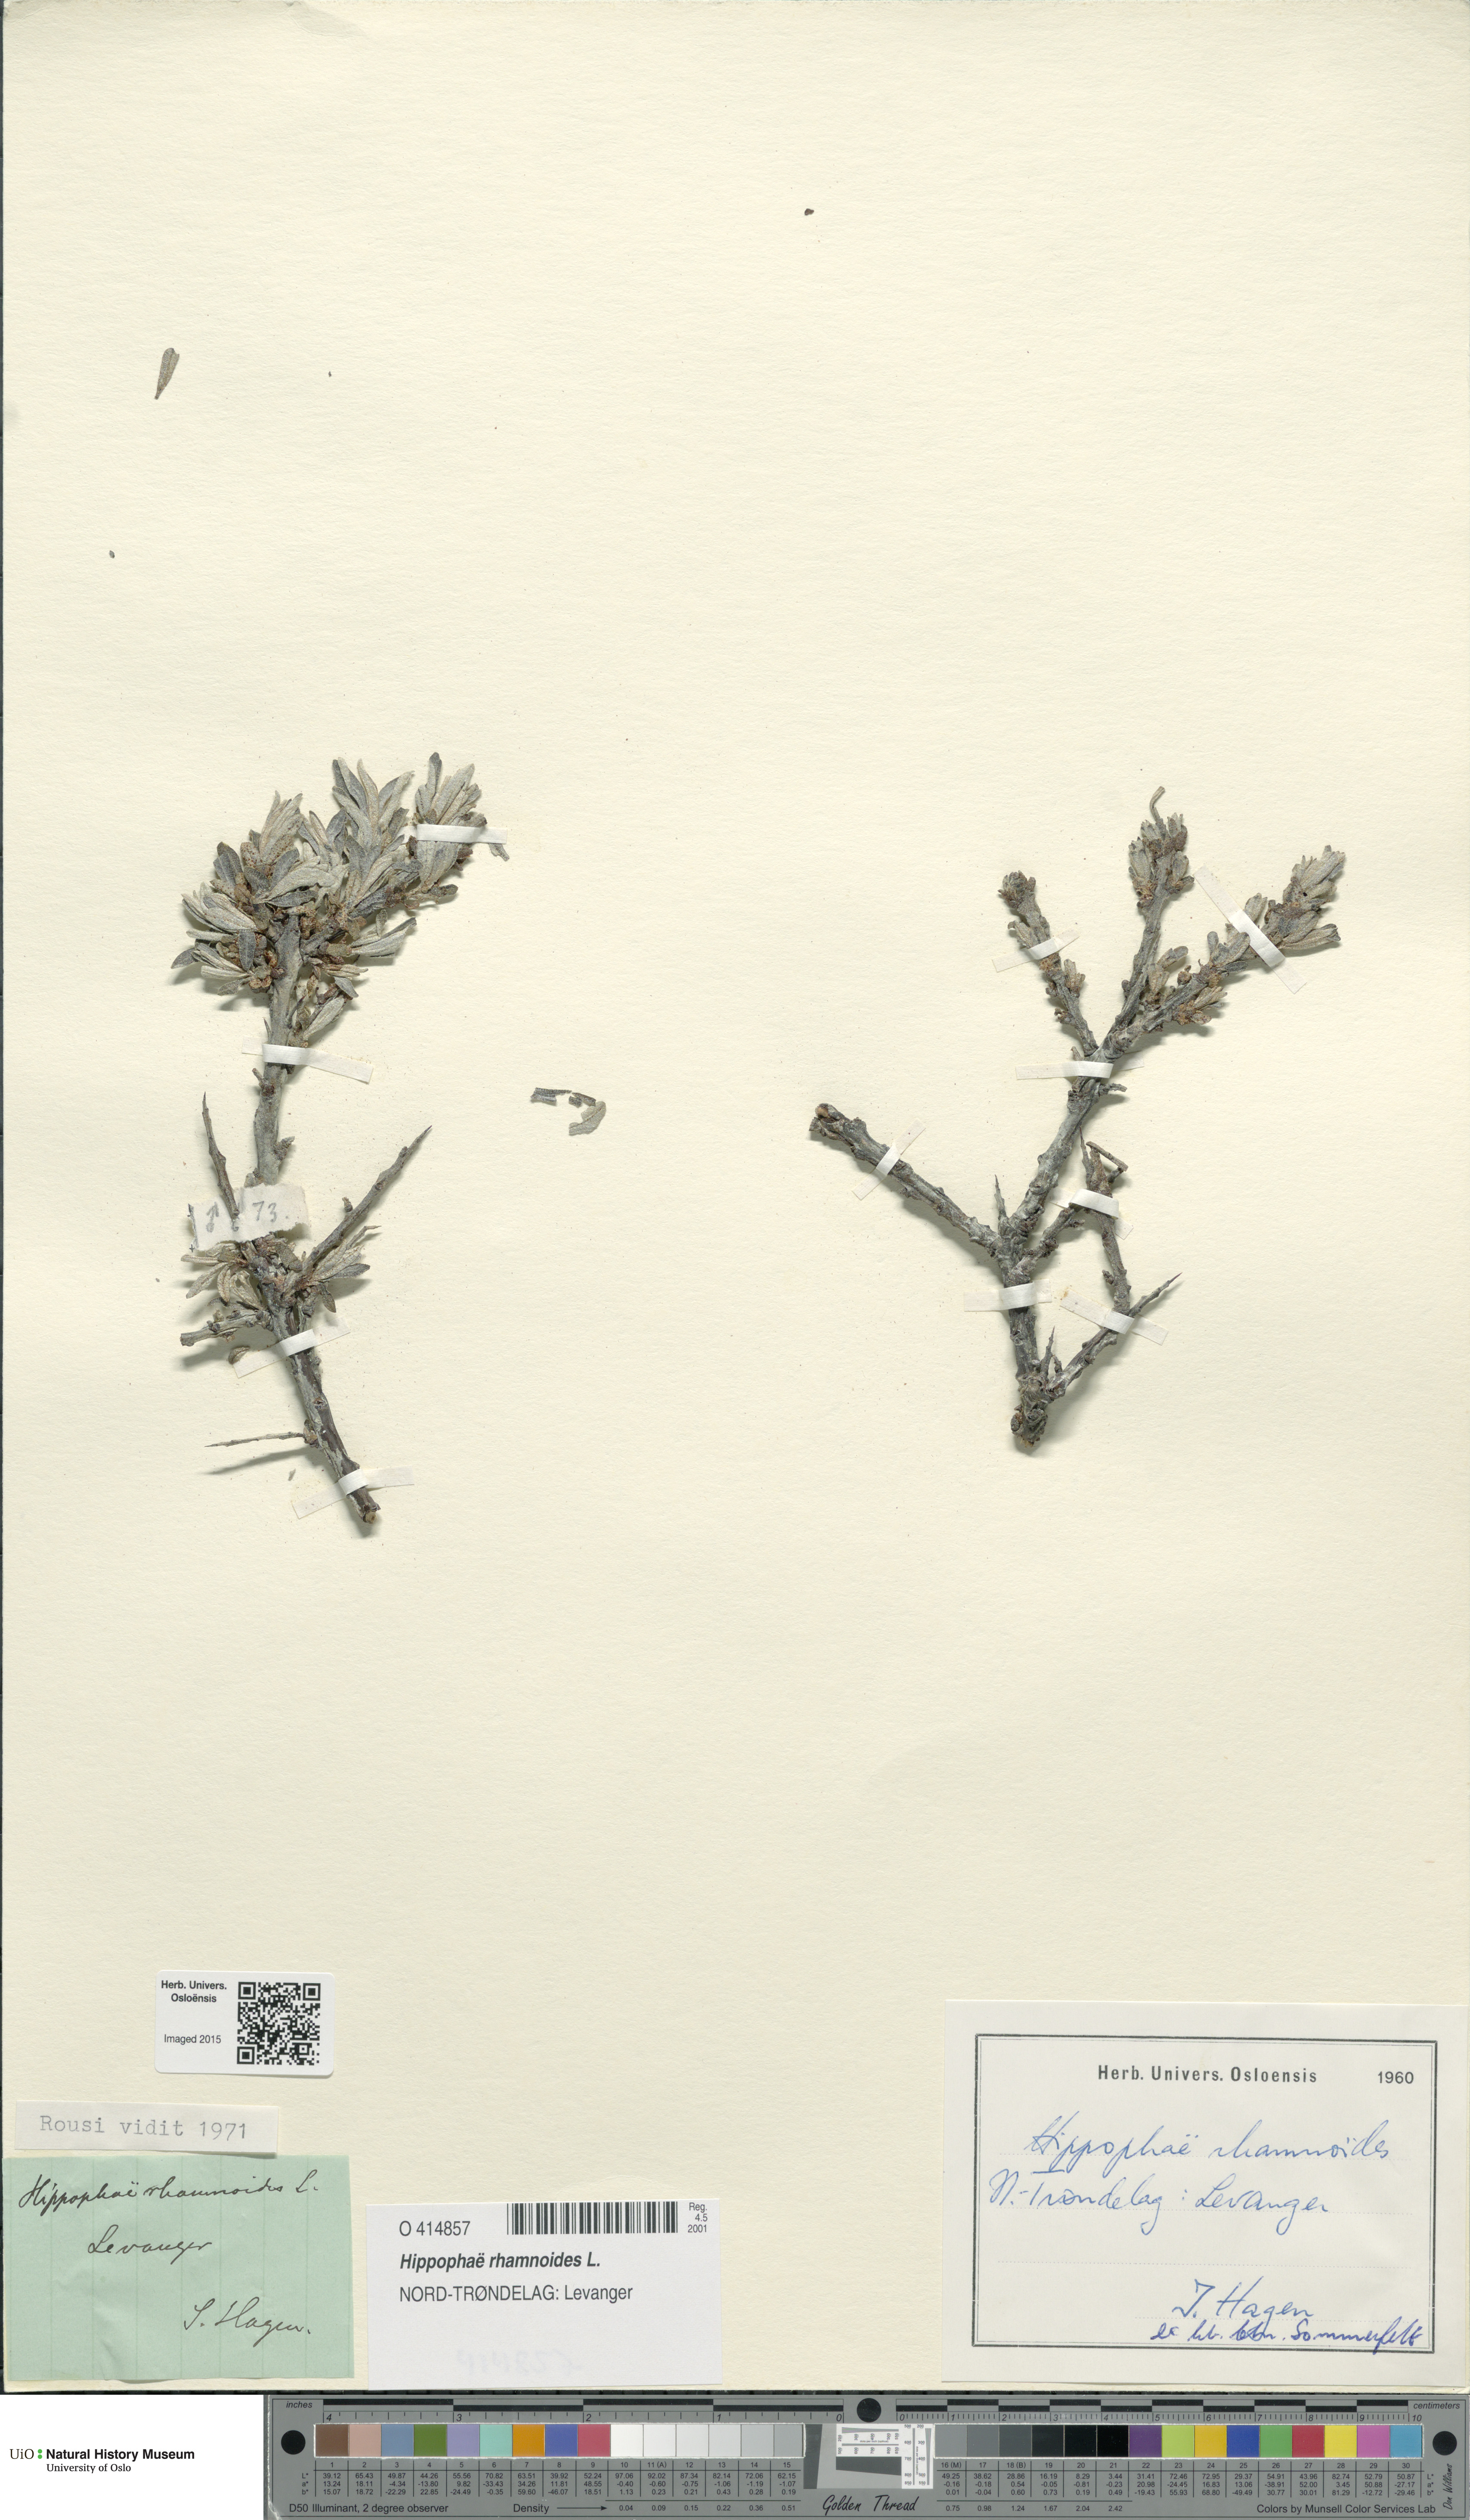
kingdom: Plantae
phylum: Tracheophyta
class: Magnoliopsida
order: Rosales
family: Elaeagnaceae
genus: Hippophae
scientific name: Hippophae rhamnoides
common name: Sea-buckthorn
